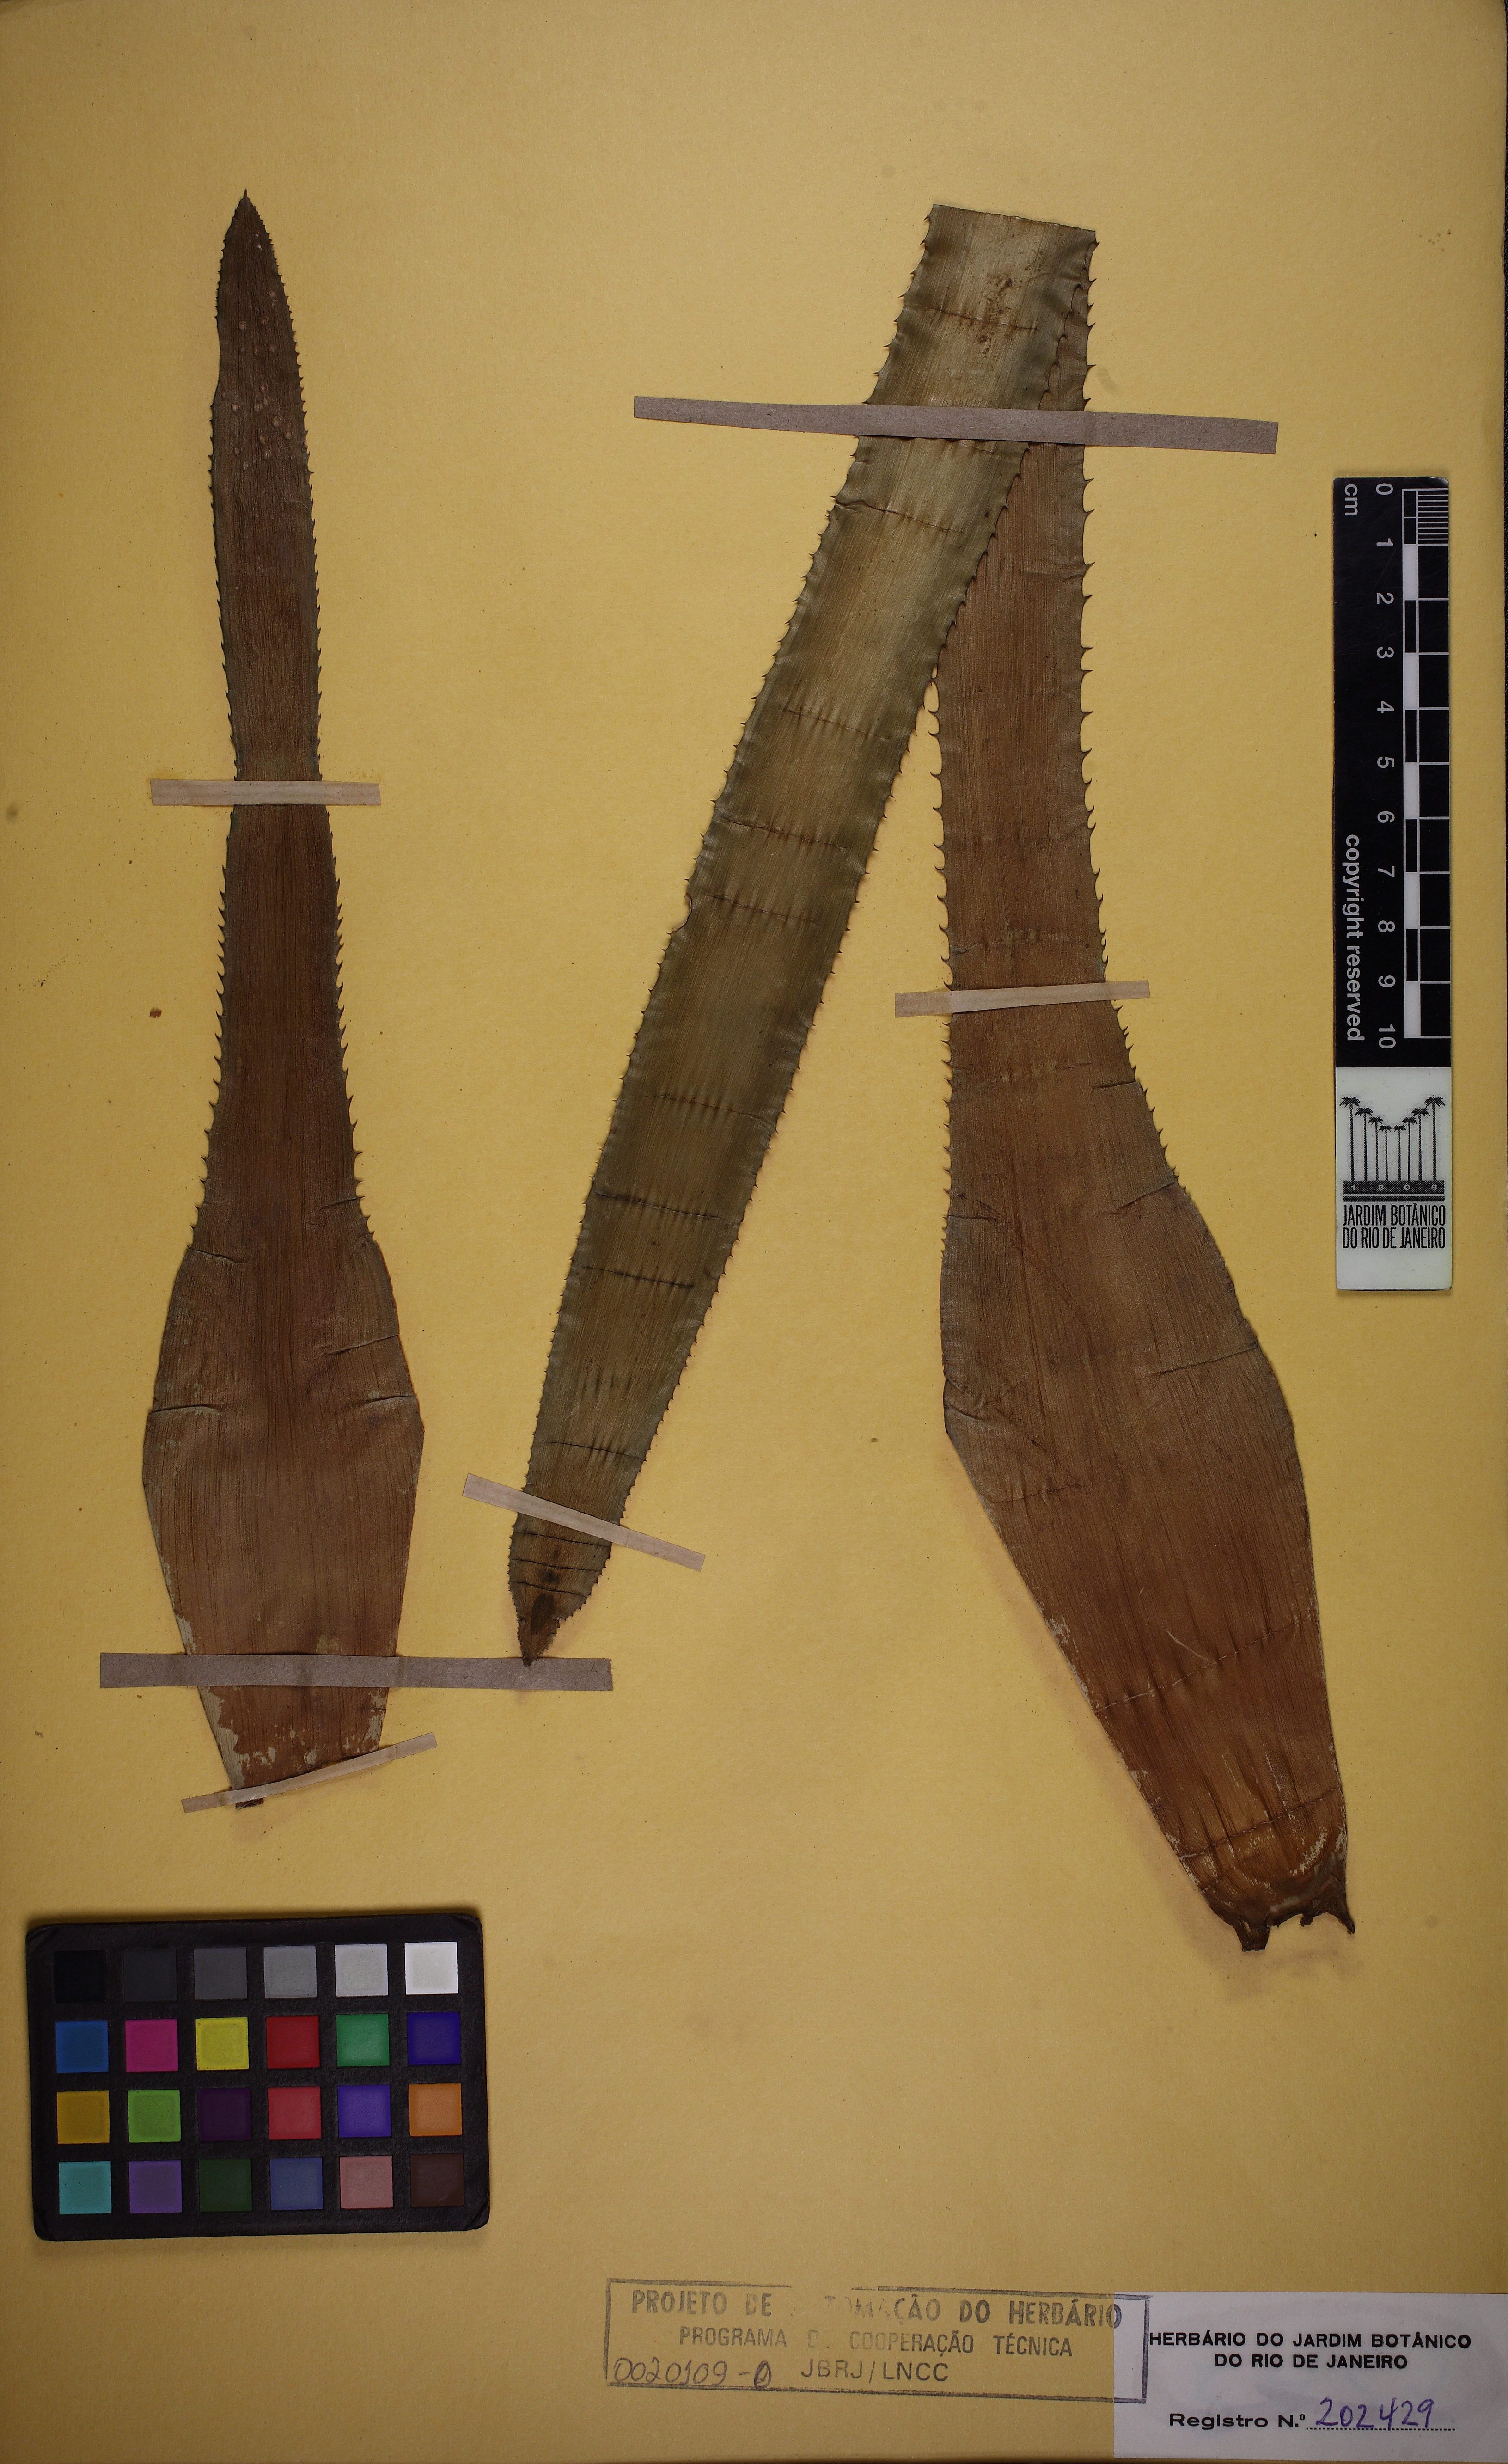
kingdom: Plantae
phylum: Tracheophyta
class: Liliopsida
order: Poales
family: Bromeliaceae
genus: Aechmea
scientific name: Aechmea maasii
